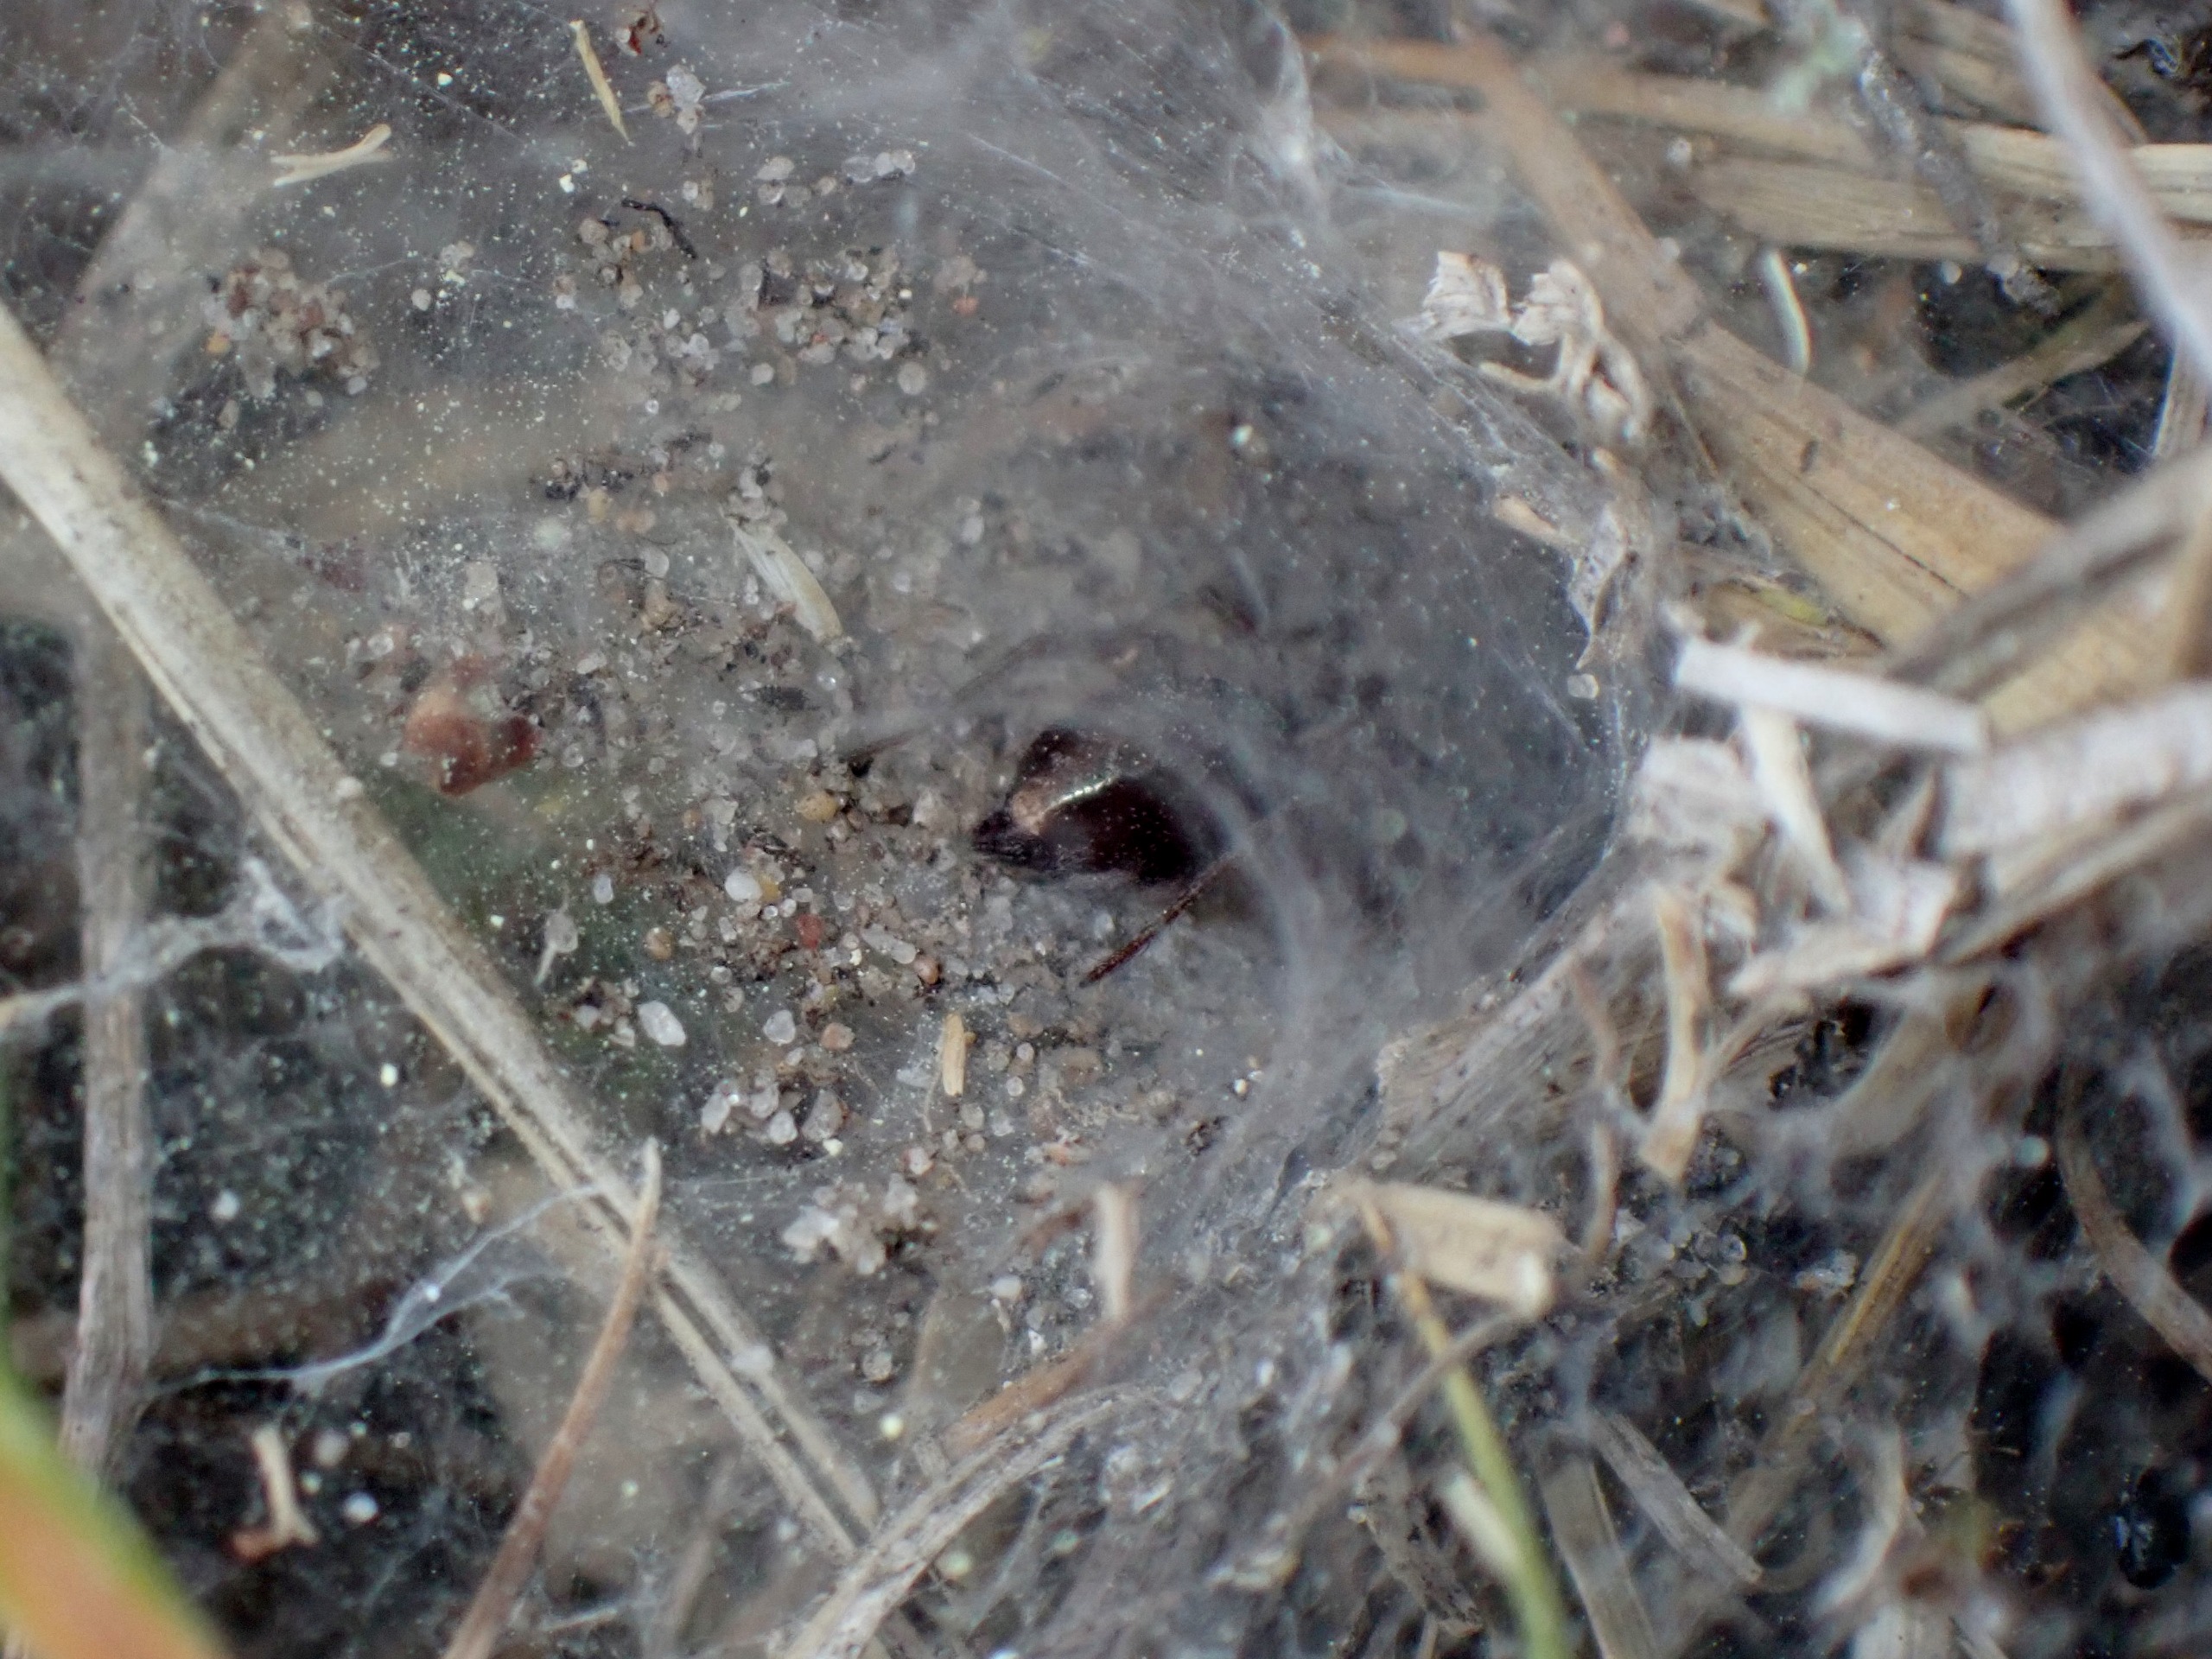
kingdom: Animalia
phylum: Arthropoda
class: Arachnida
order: Araneae
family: Agelenidae
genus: Agelena
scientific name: Agelena labyrinthica
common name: Labyrintedderkop
